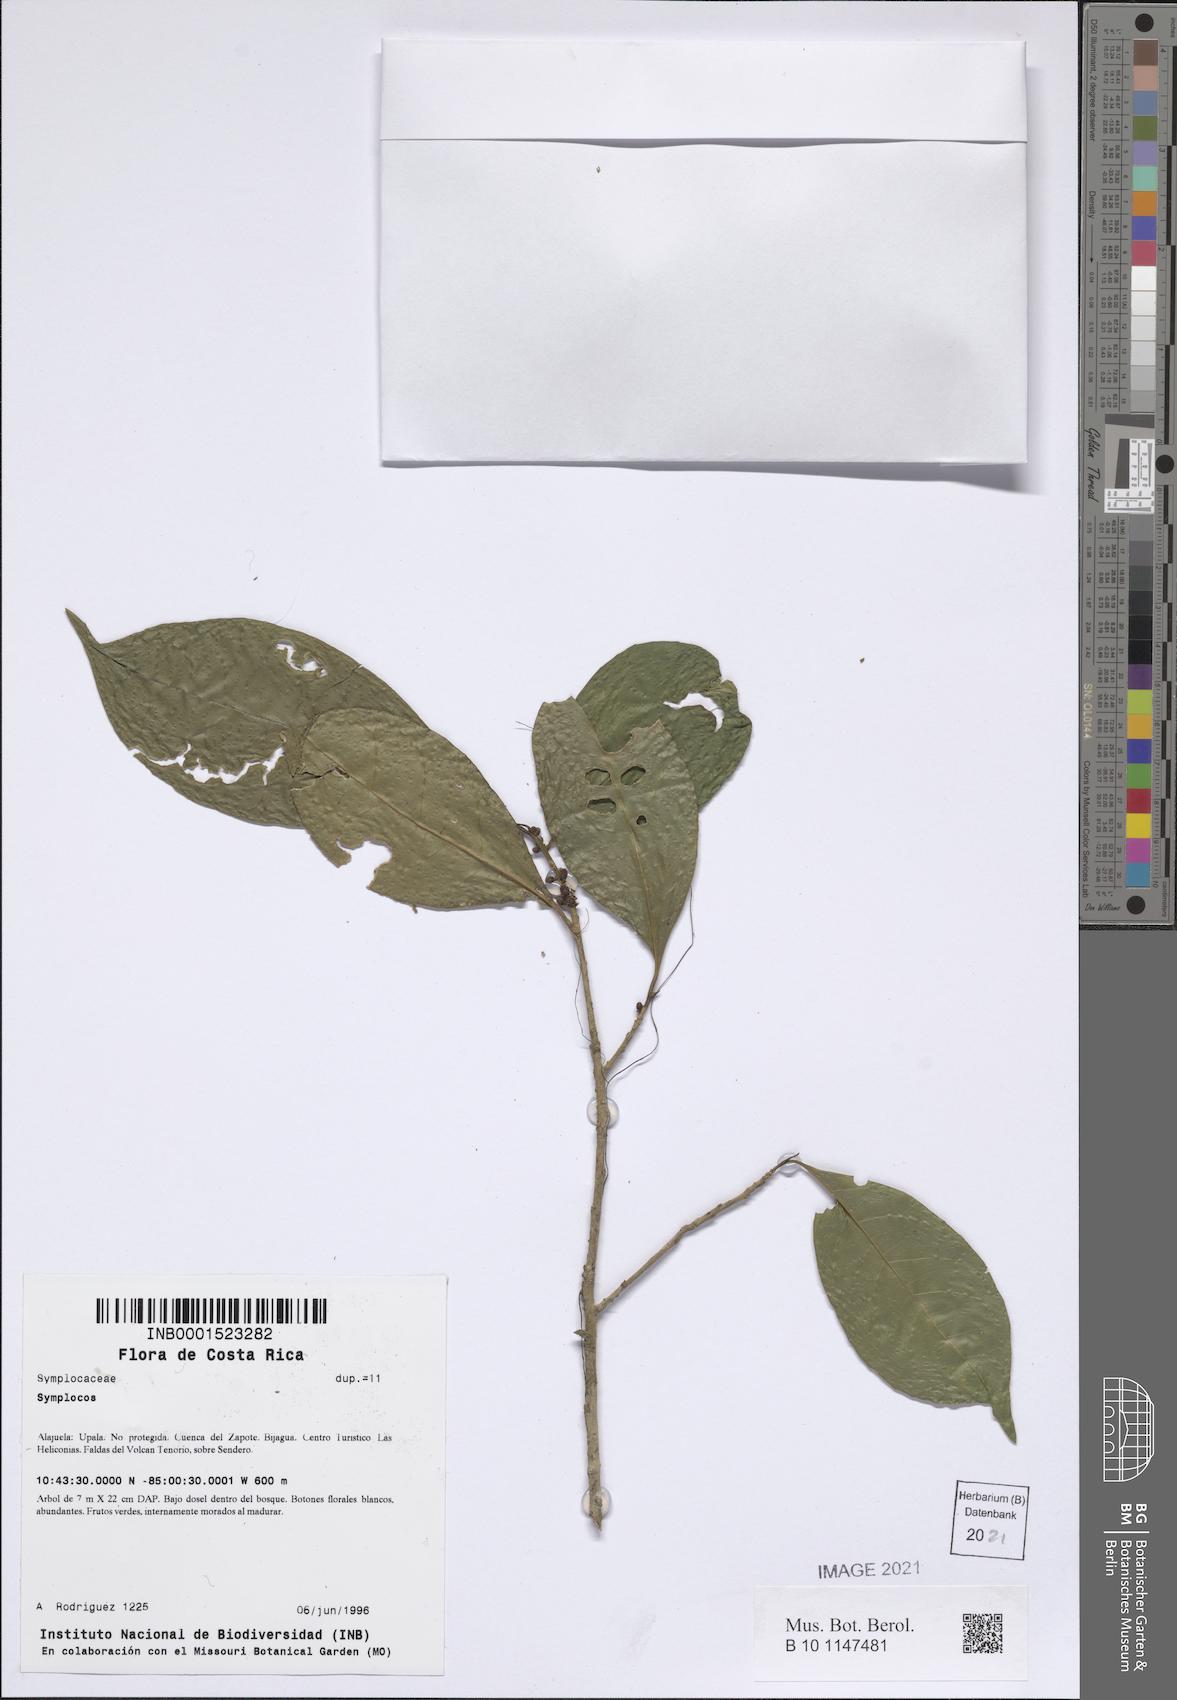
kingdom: Plantae
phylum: Tracheophyta
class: Magnoliopsida
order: Ericales
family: Symplocaceae
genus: Symplocos
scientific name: Symplocos
